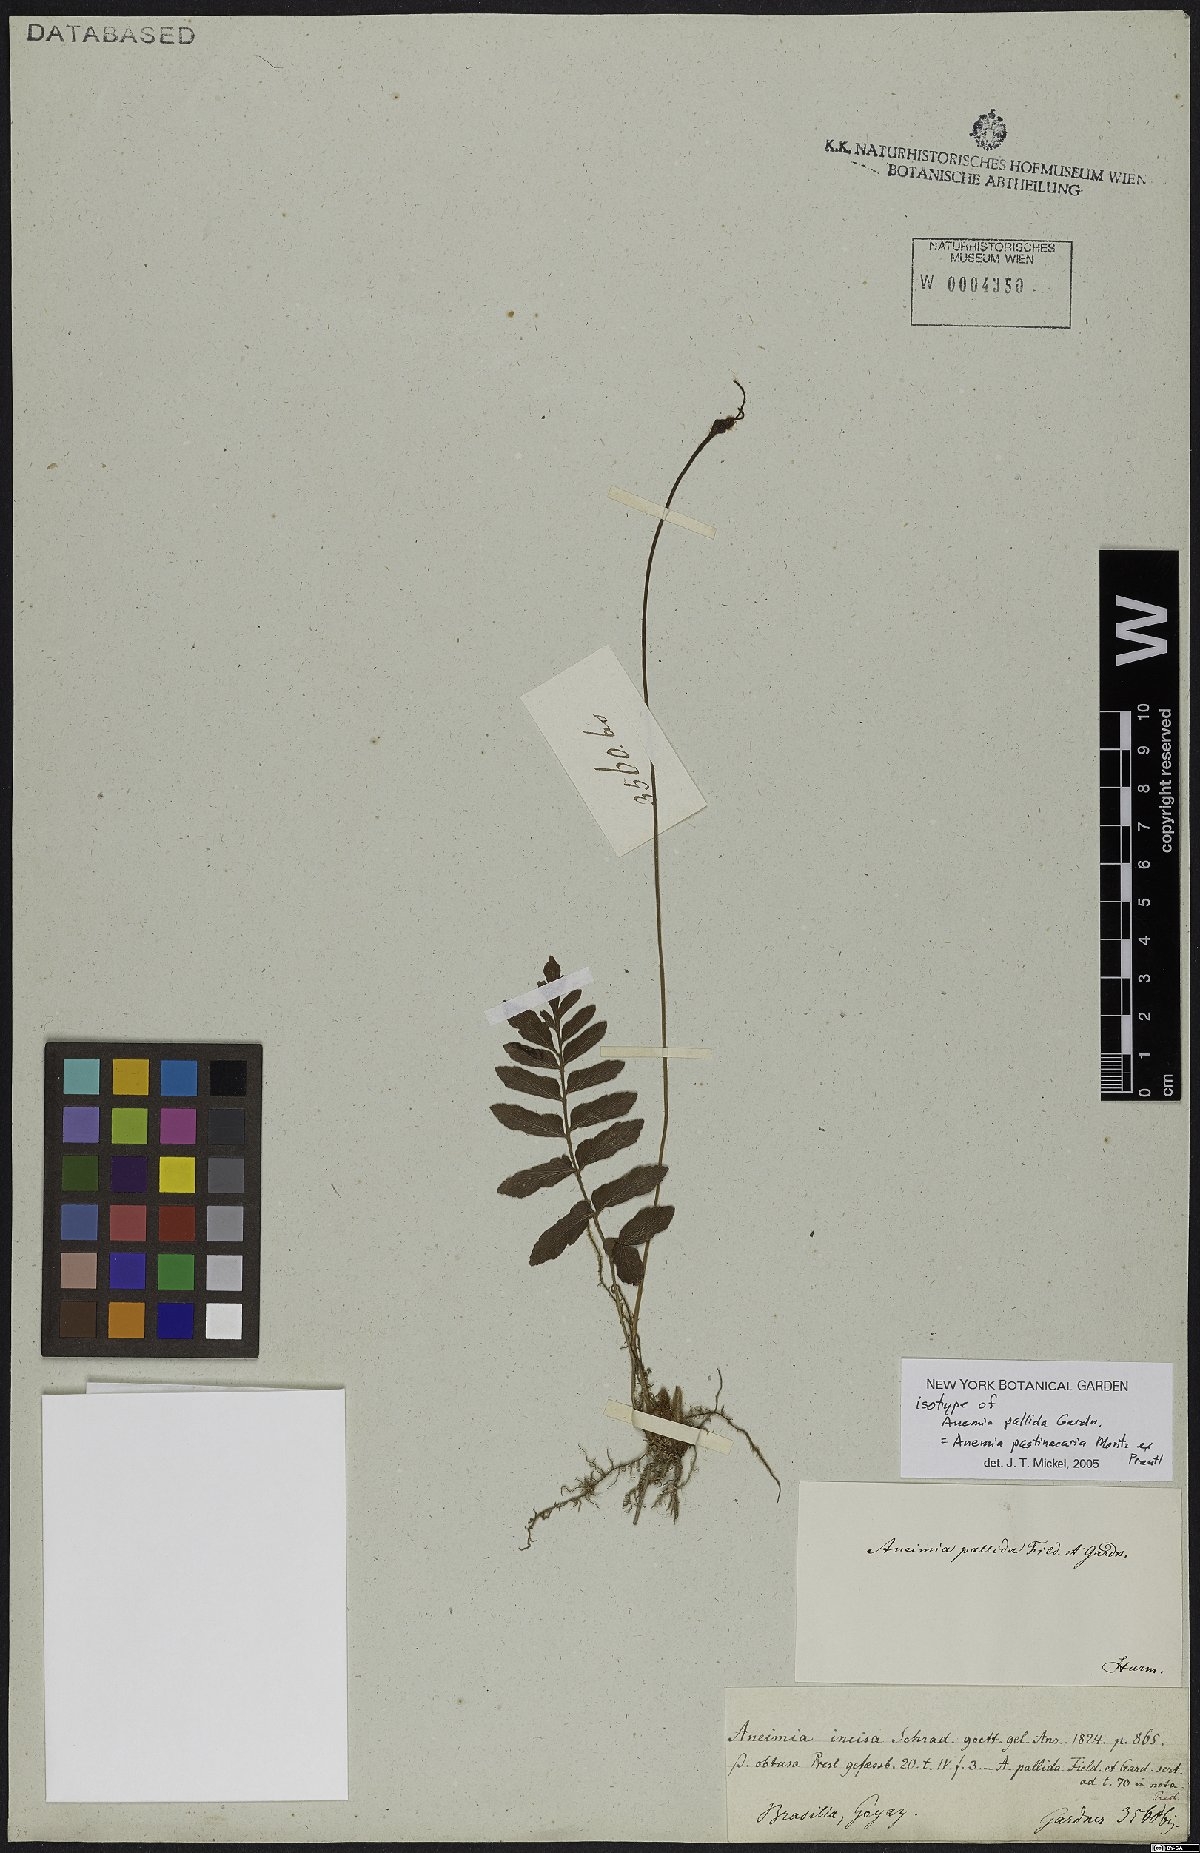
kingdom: Plantae
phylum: Tracheophyta
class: Polypodiopsida
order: Schizaeales
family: Anemiaceae
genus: Anemia
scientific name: Anemia hispida
